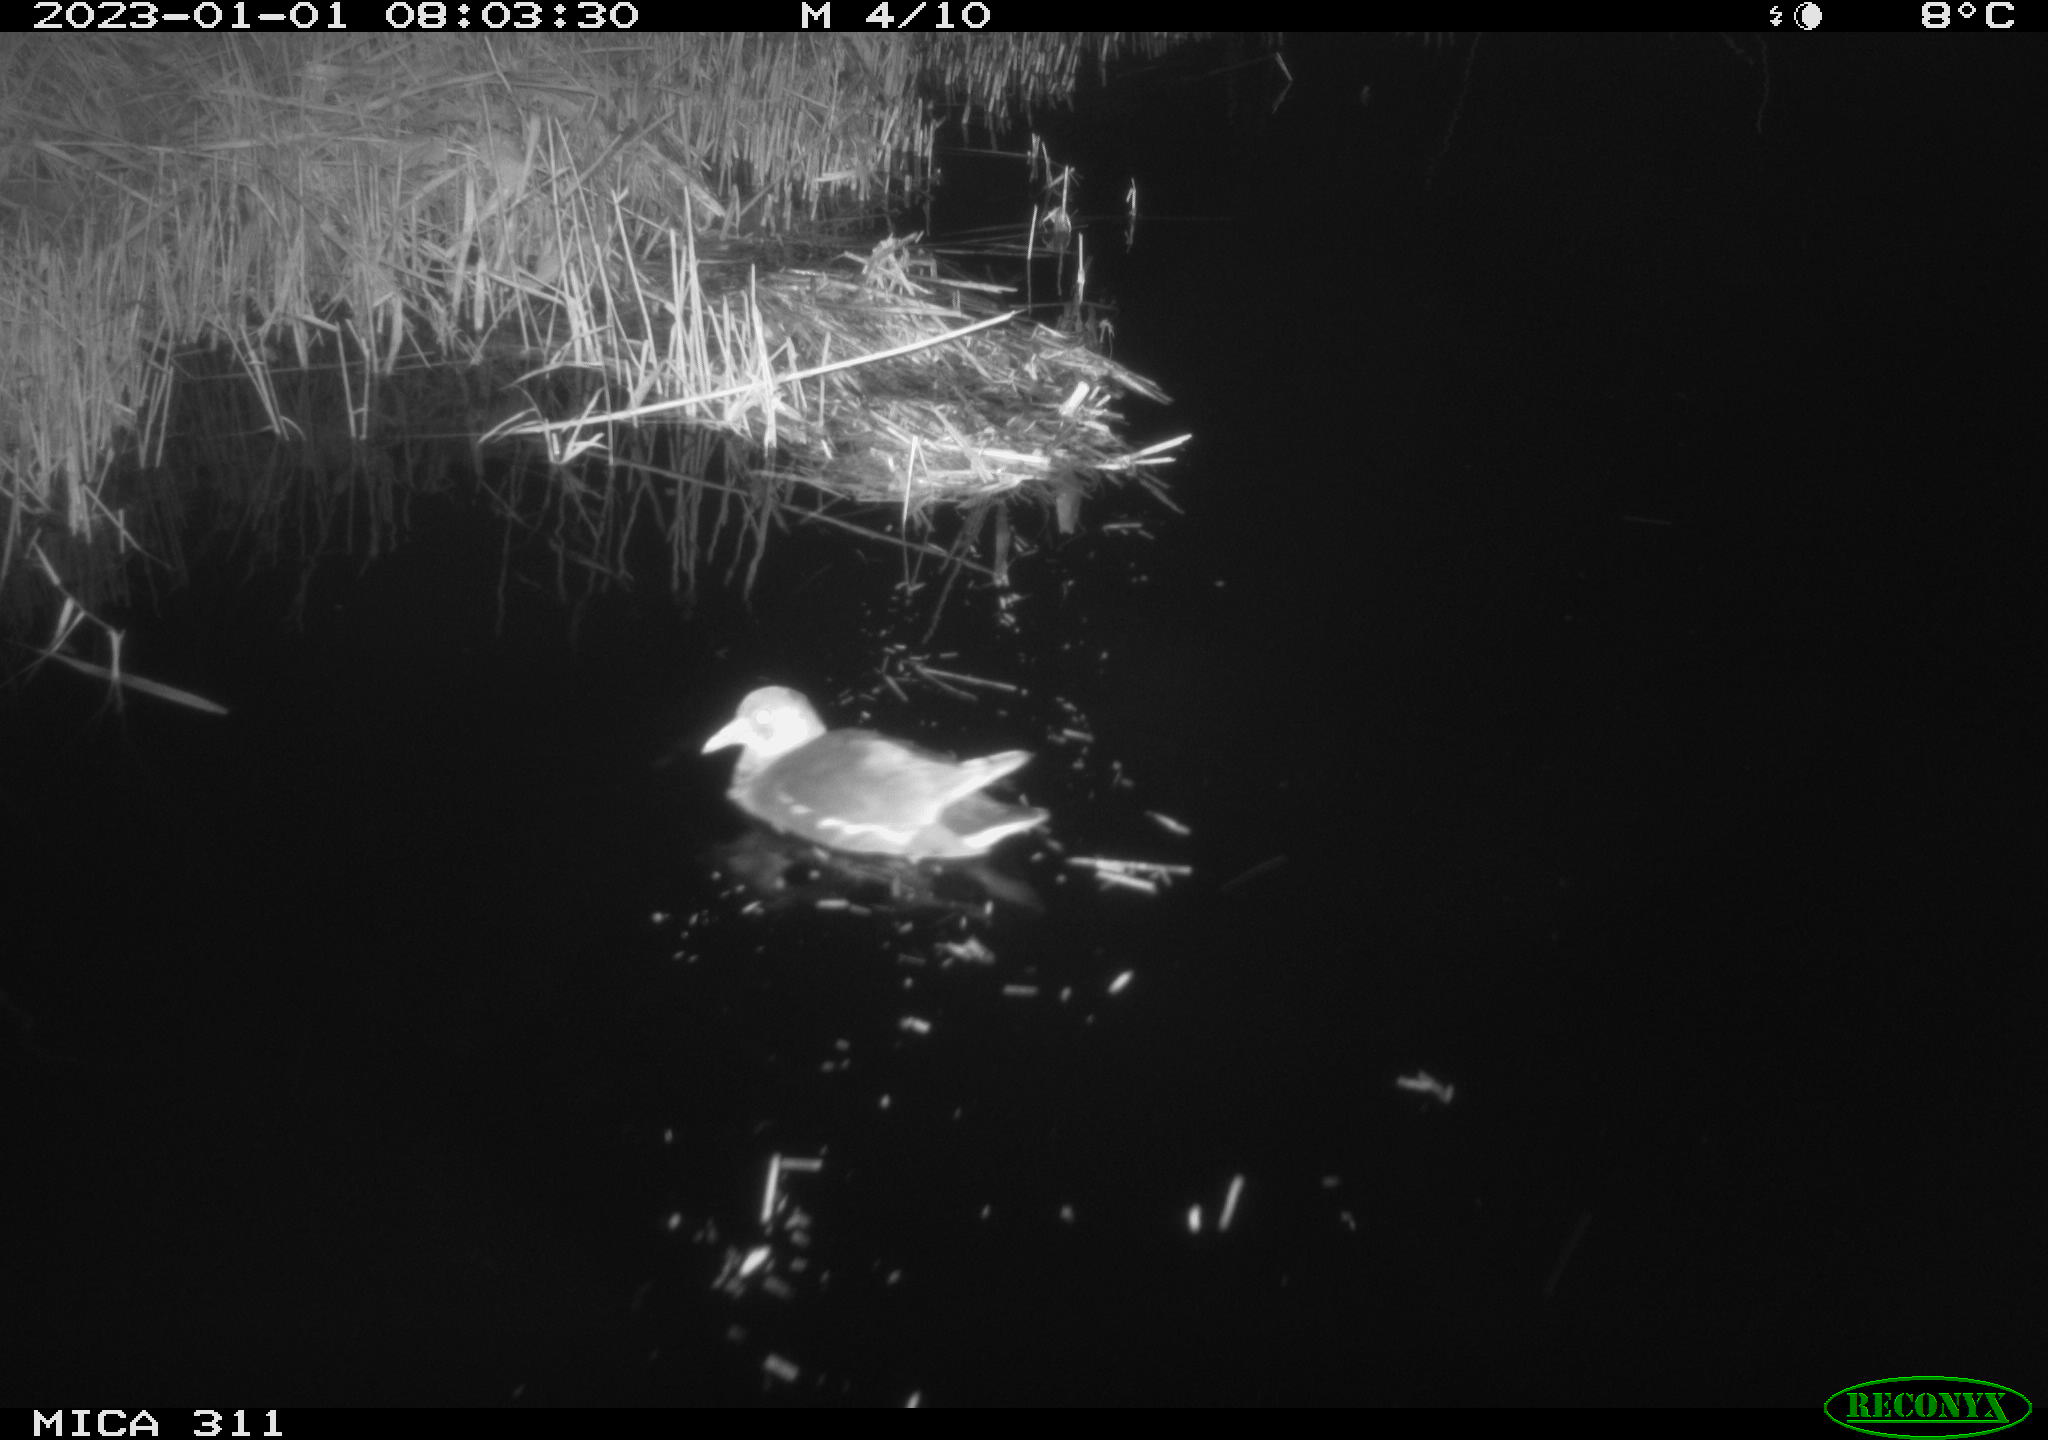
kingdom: Animalia
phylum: Chordata
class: Aves
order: Gruiformes
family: Rallidae
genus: Gallinula
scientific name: Gallinula chloropus
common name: Common moorhen
